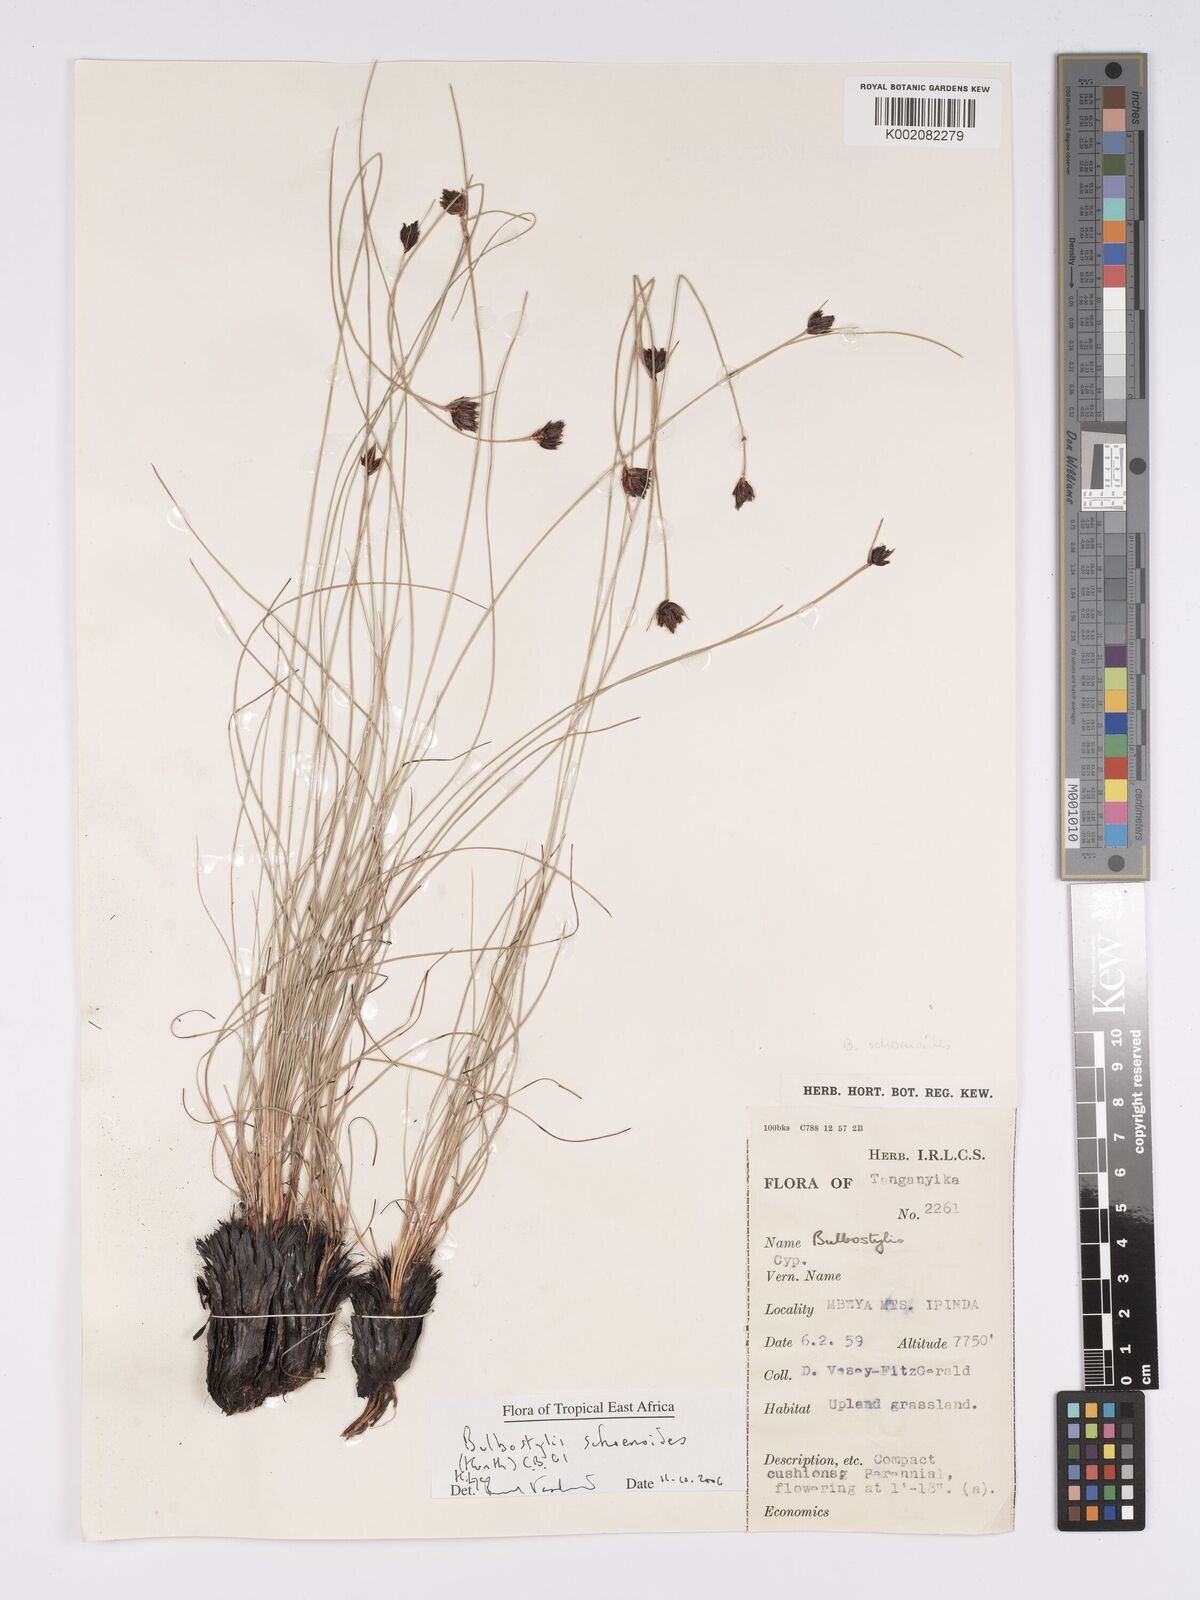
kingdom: Plantae
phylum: Tracheophyta
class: Liliopsida
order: Poales
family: Cyperaceae
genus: Bulbostylis
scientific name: Bulbostylis schoenoides
